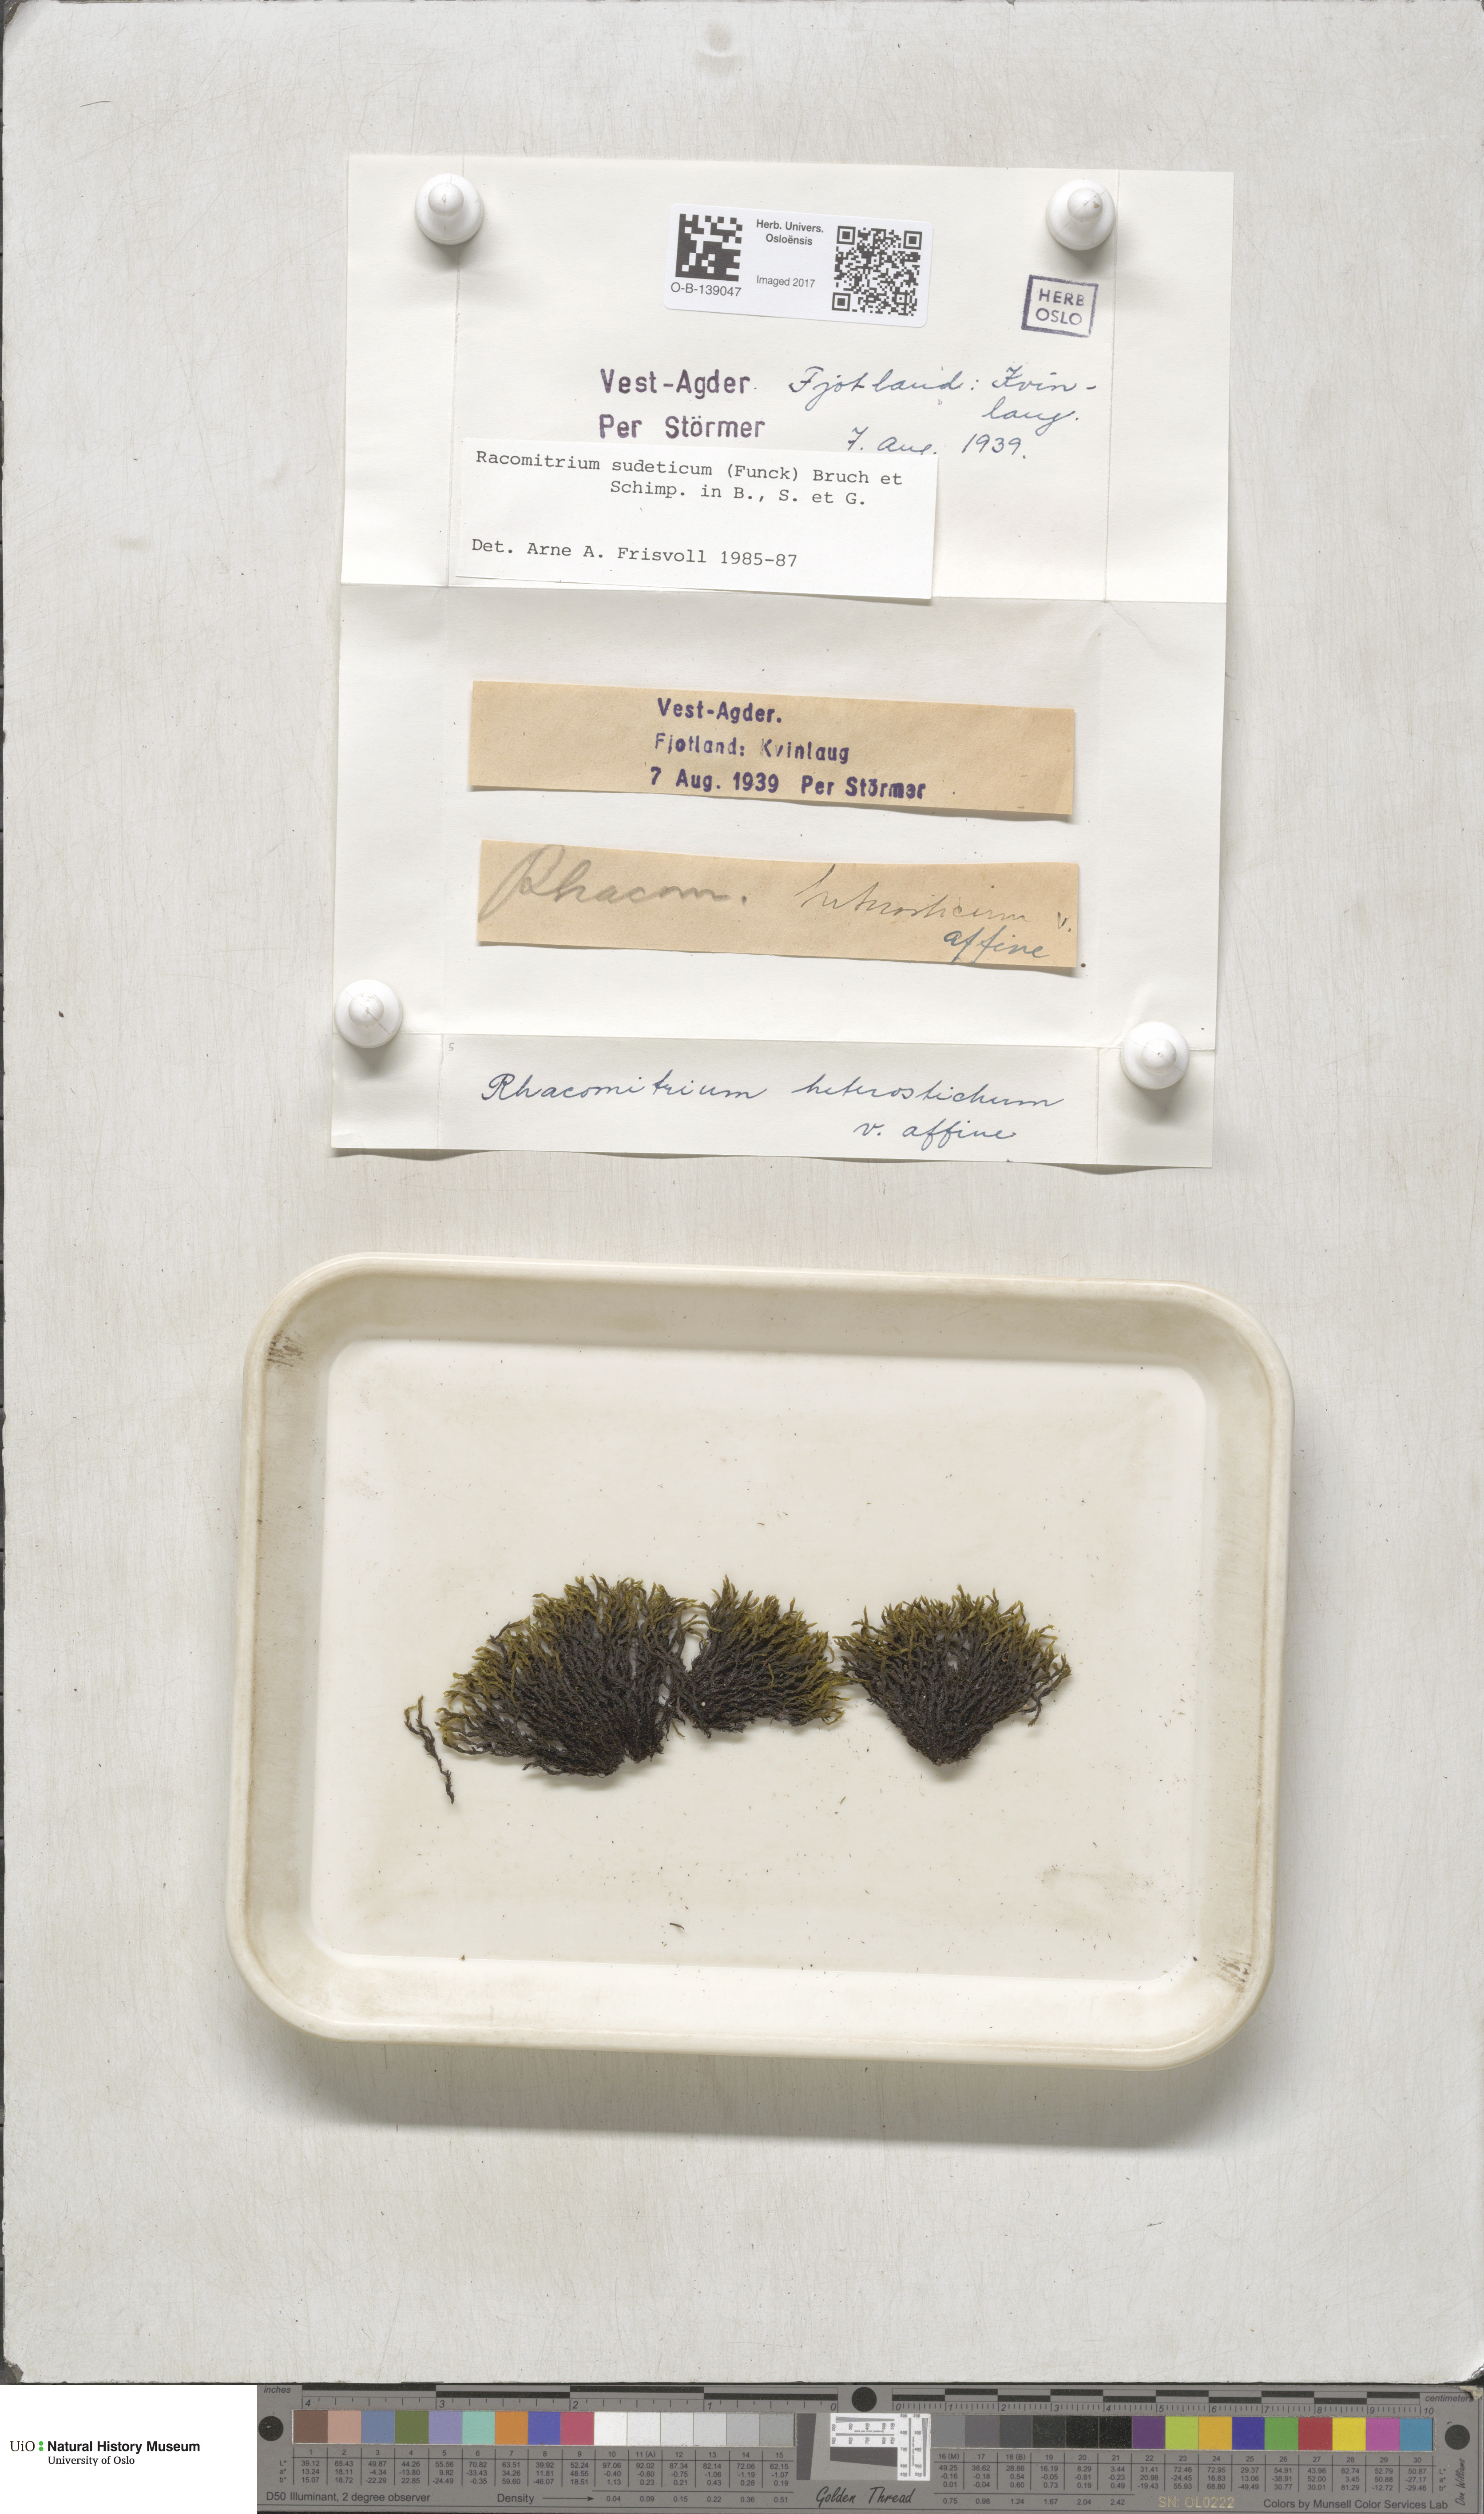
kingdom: Plantae
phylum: Bryophyta
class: Bryopsida
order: Grimmiales
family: Grimmiaceae
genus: Bucklandiella
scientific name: Bucklandiella sudetica
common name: Slender fringe-moss
